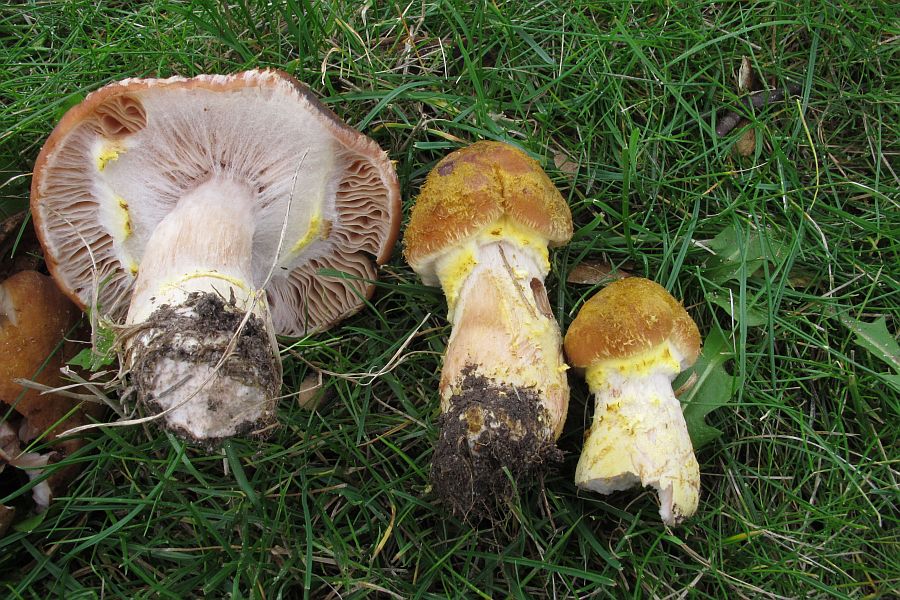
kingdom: Fungi
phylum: Basidiomycota
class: Agaricomycetes
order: Agaricales
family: Physalacriaceae
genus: Armillaria
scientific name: Armillaria lutea
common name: køllestokket honningsvamp
